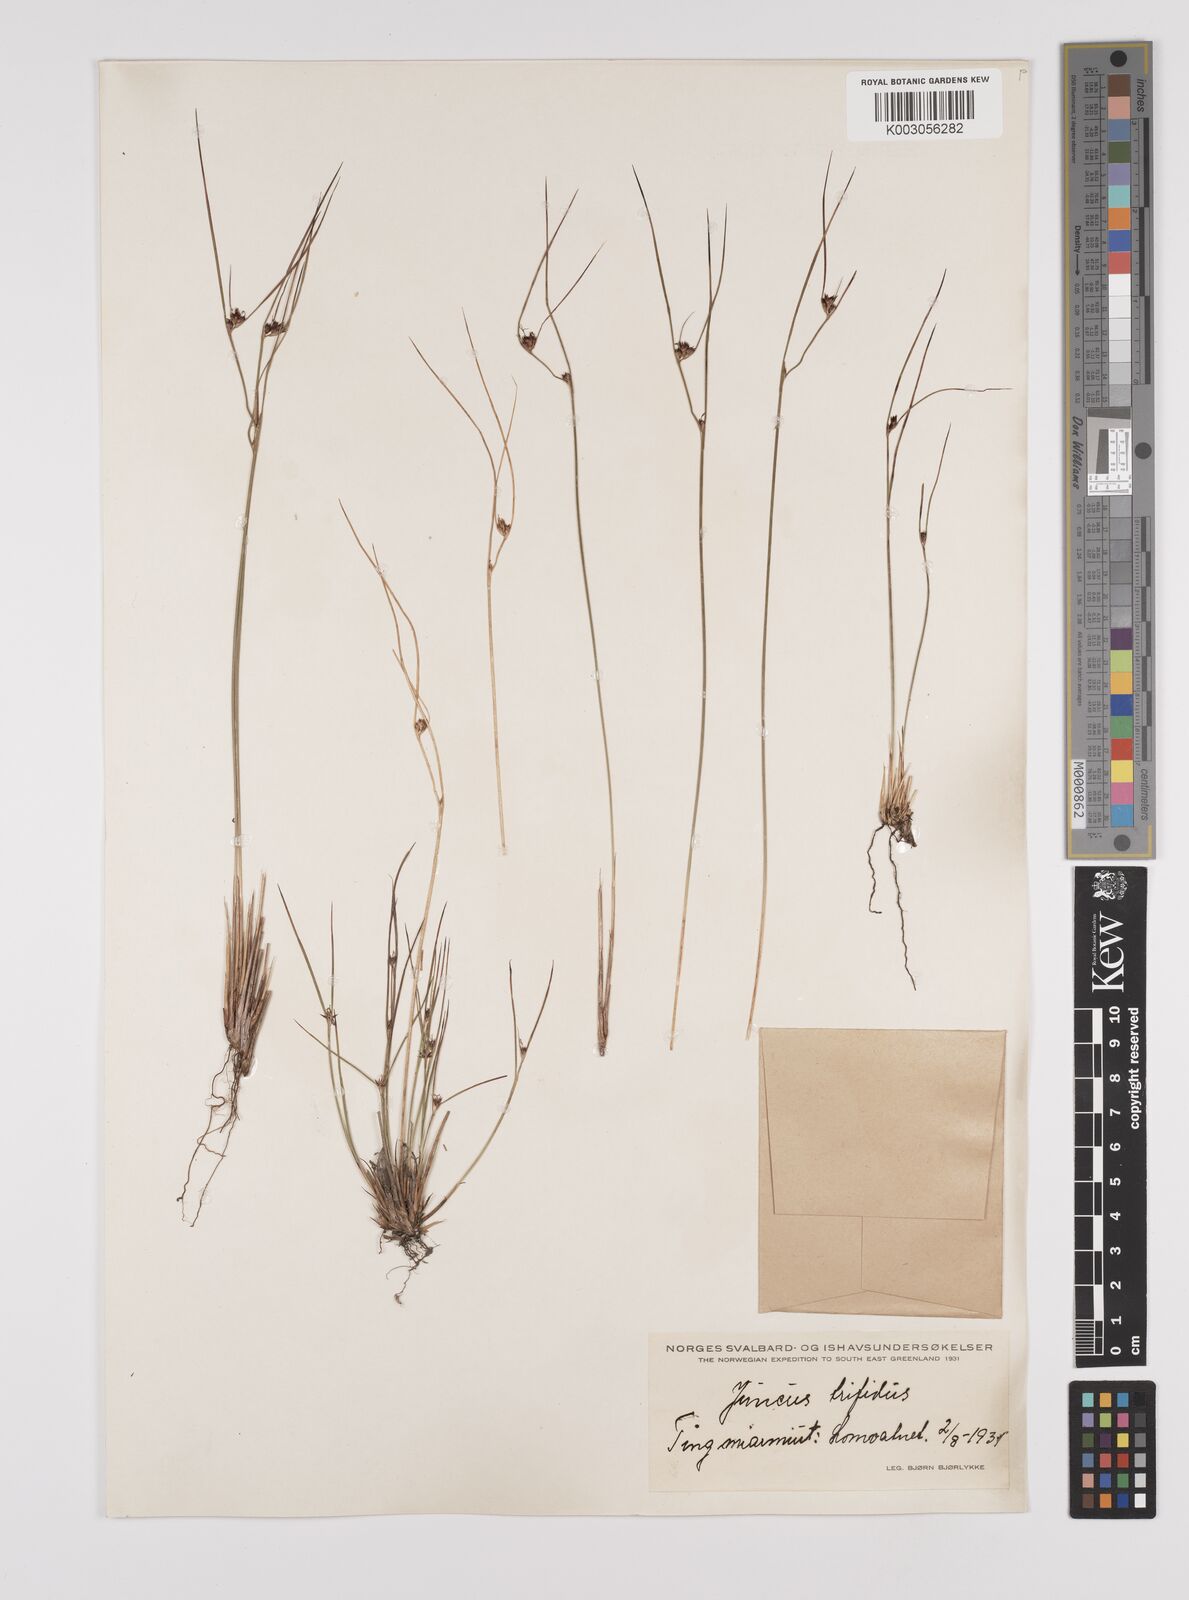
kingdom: Plantae
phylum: Tracheophyta
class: Liliopsida
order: Poales
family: Juncaceae
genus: Oreojuncus
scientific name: Oreojuncus trifidus
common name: Highland rush
